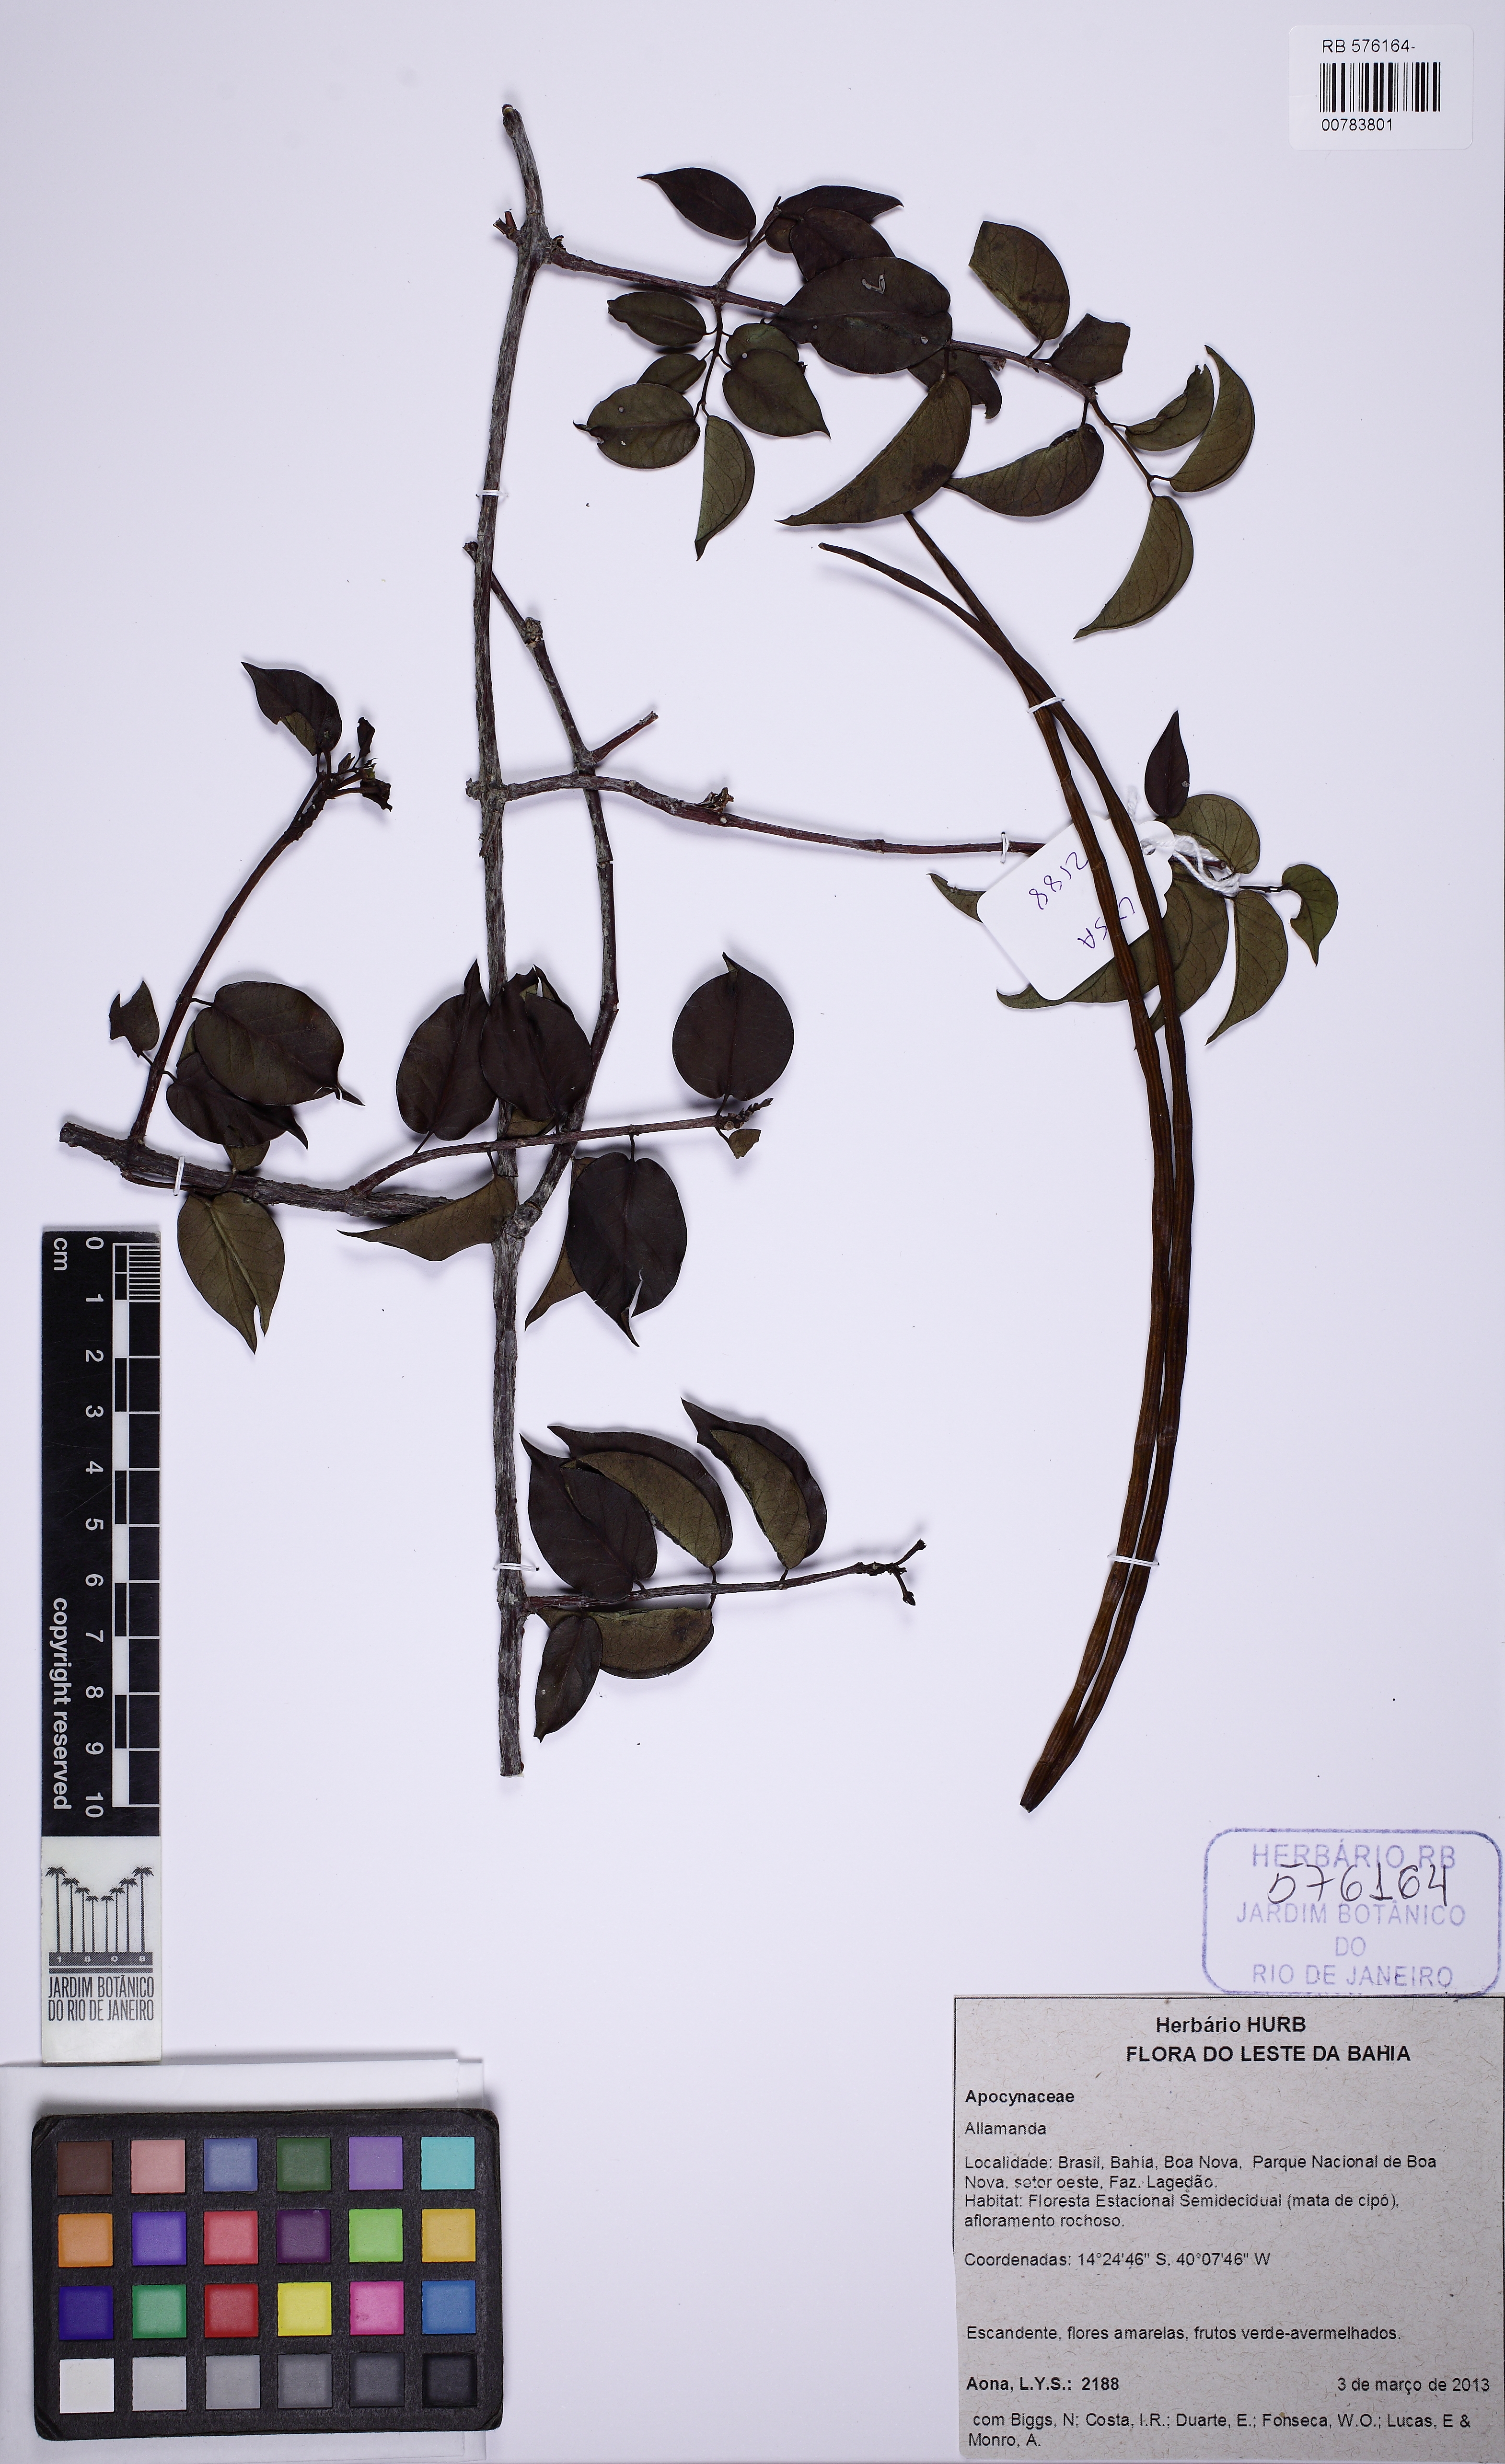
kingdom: Plantae
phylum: Tracheophyta
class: Magnoliopsida
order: Gentianales
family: Apocynaceae
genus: Allamanda
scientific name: Allamanda
